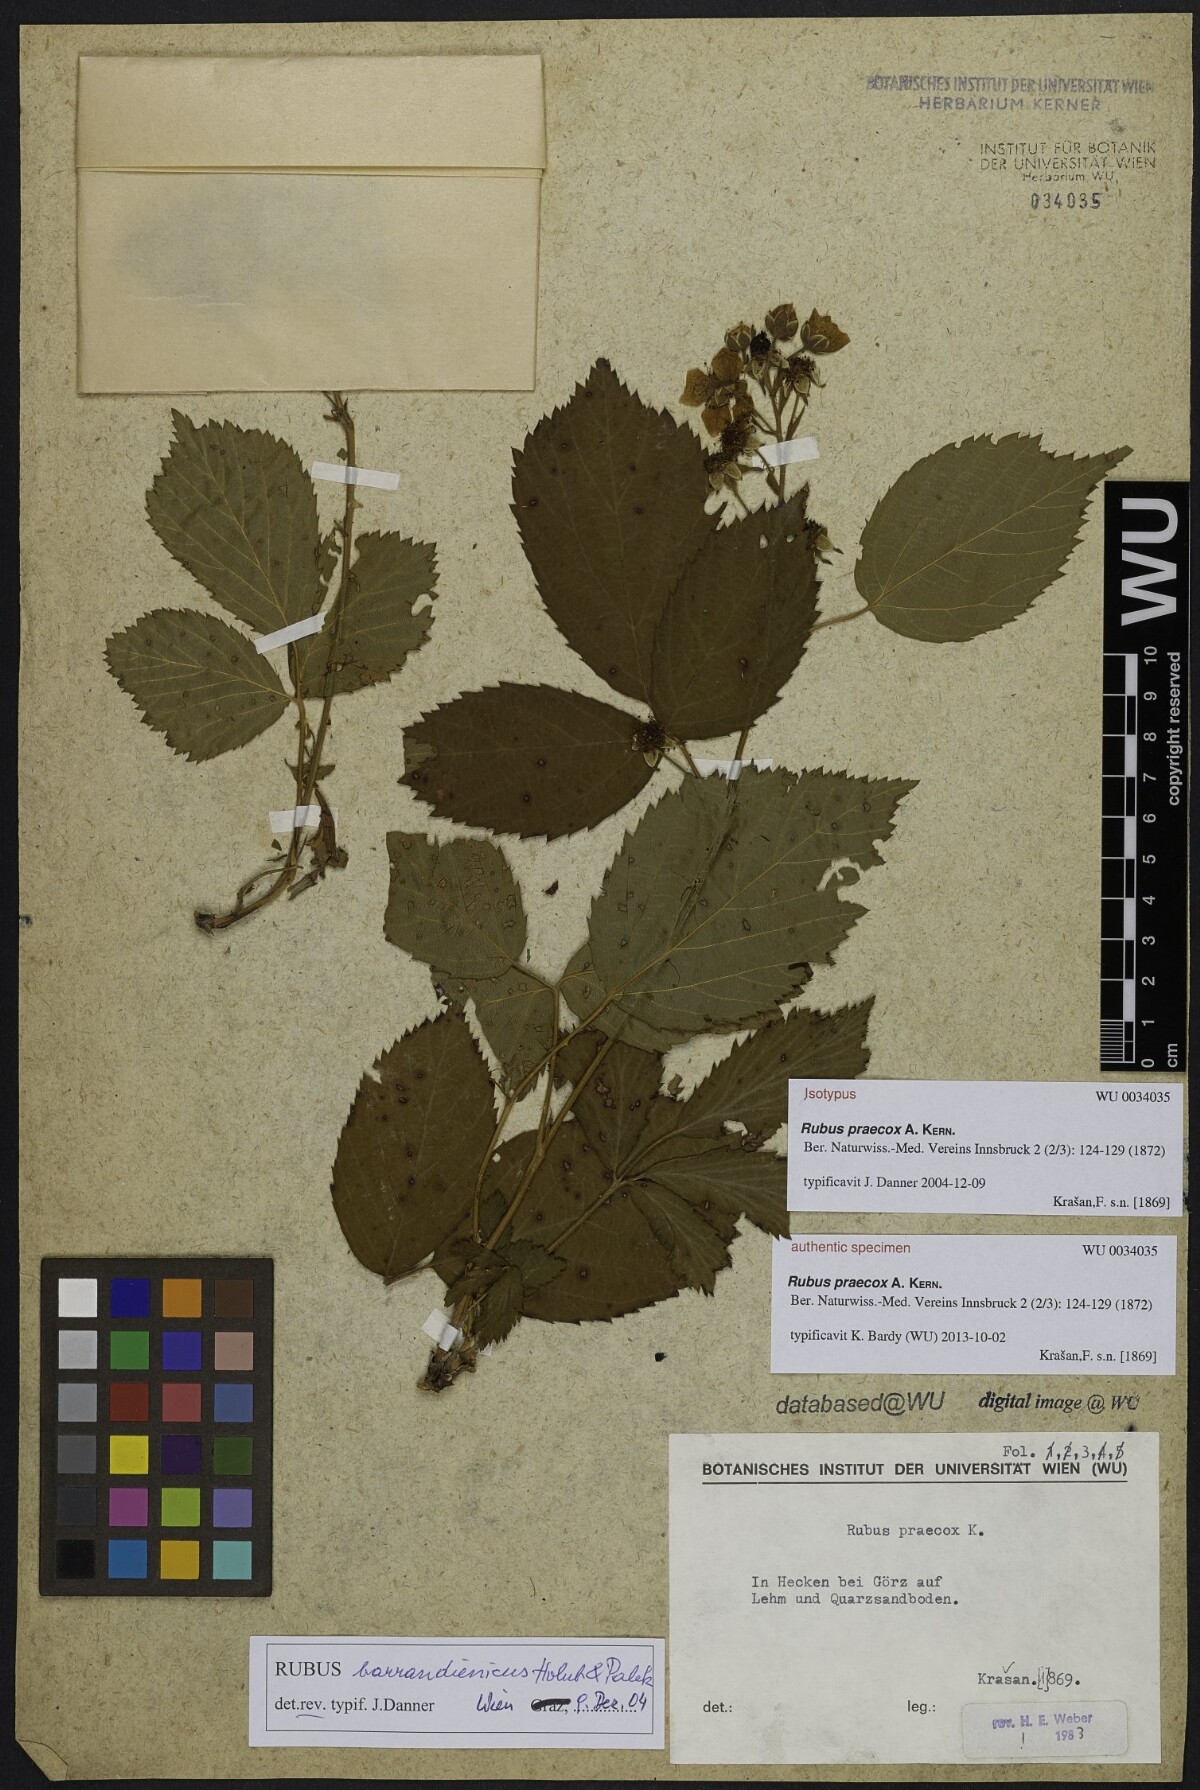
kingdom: Plantae
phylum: Tracheophyta
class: Magnoliopsida
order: Rosales
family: Rosaceae
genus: Rubus
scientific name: Rubus sulcatus
